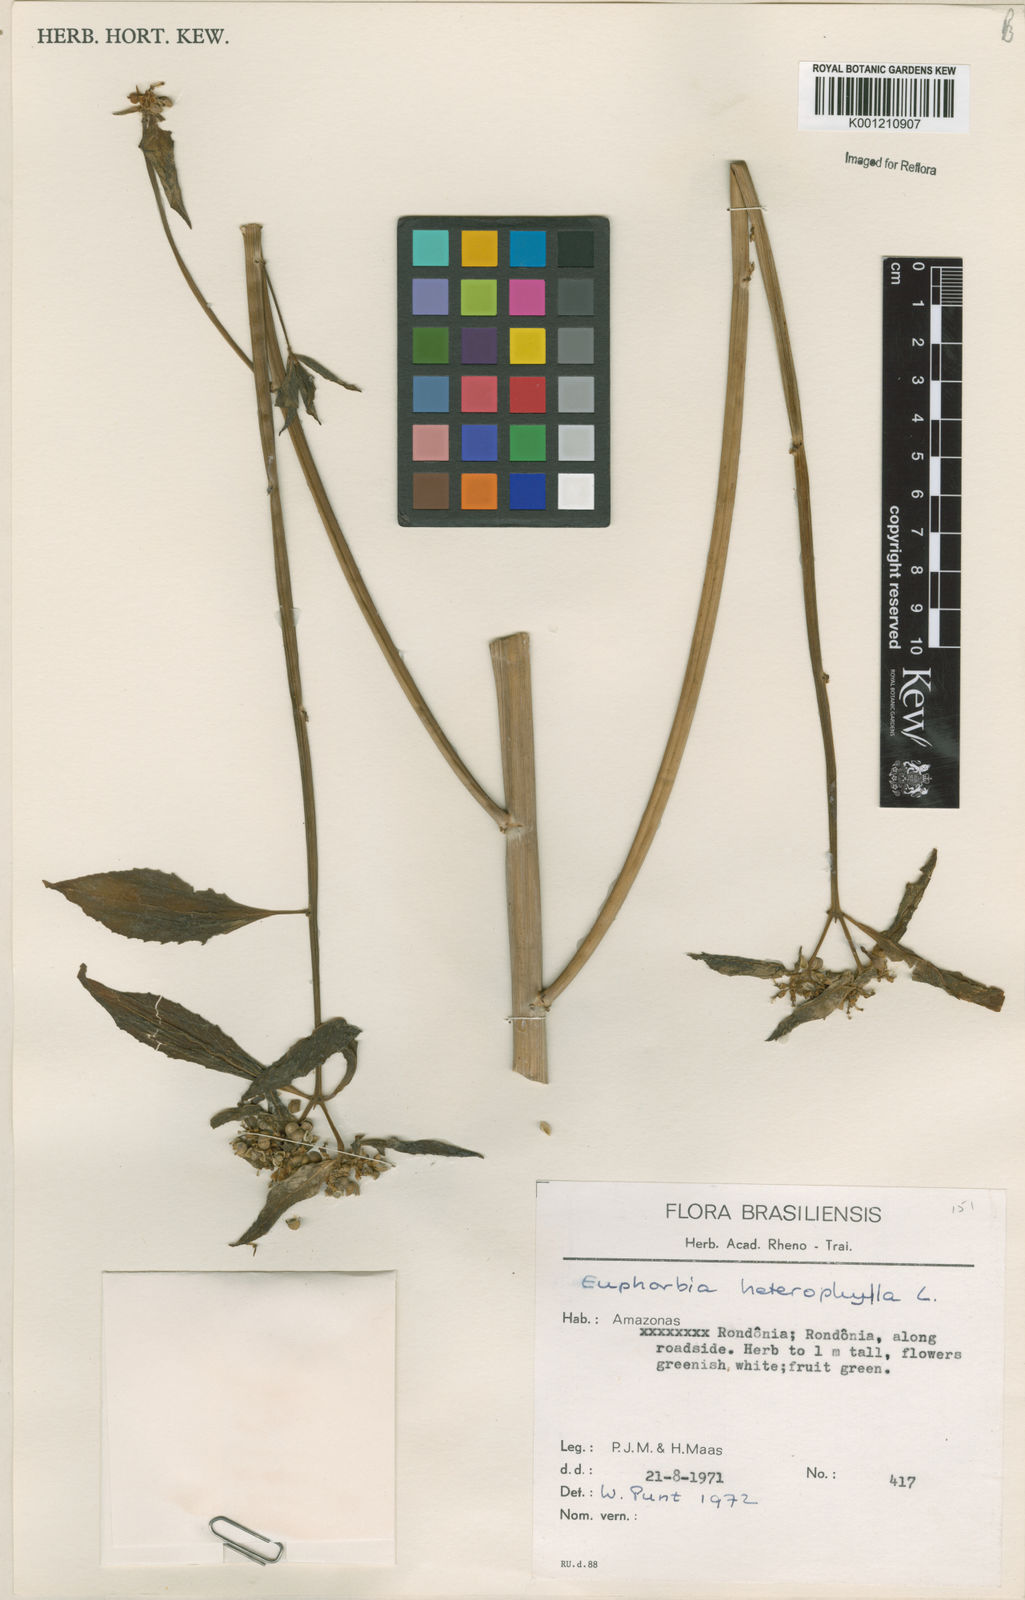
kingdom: Plantae
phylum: Tracheophyta
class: Magnoliopsida
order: Malpighiales
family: Euphorbiaceae
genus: Euphorbia
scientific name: Euphorbia heterophylla
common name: Mexican fireplant
